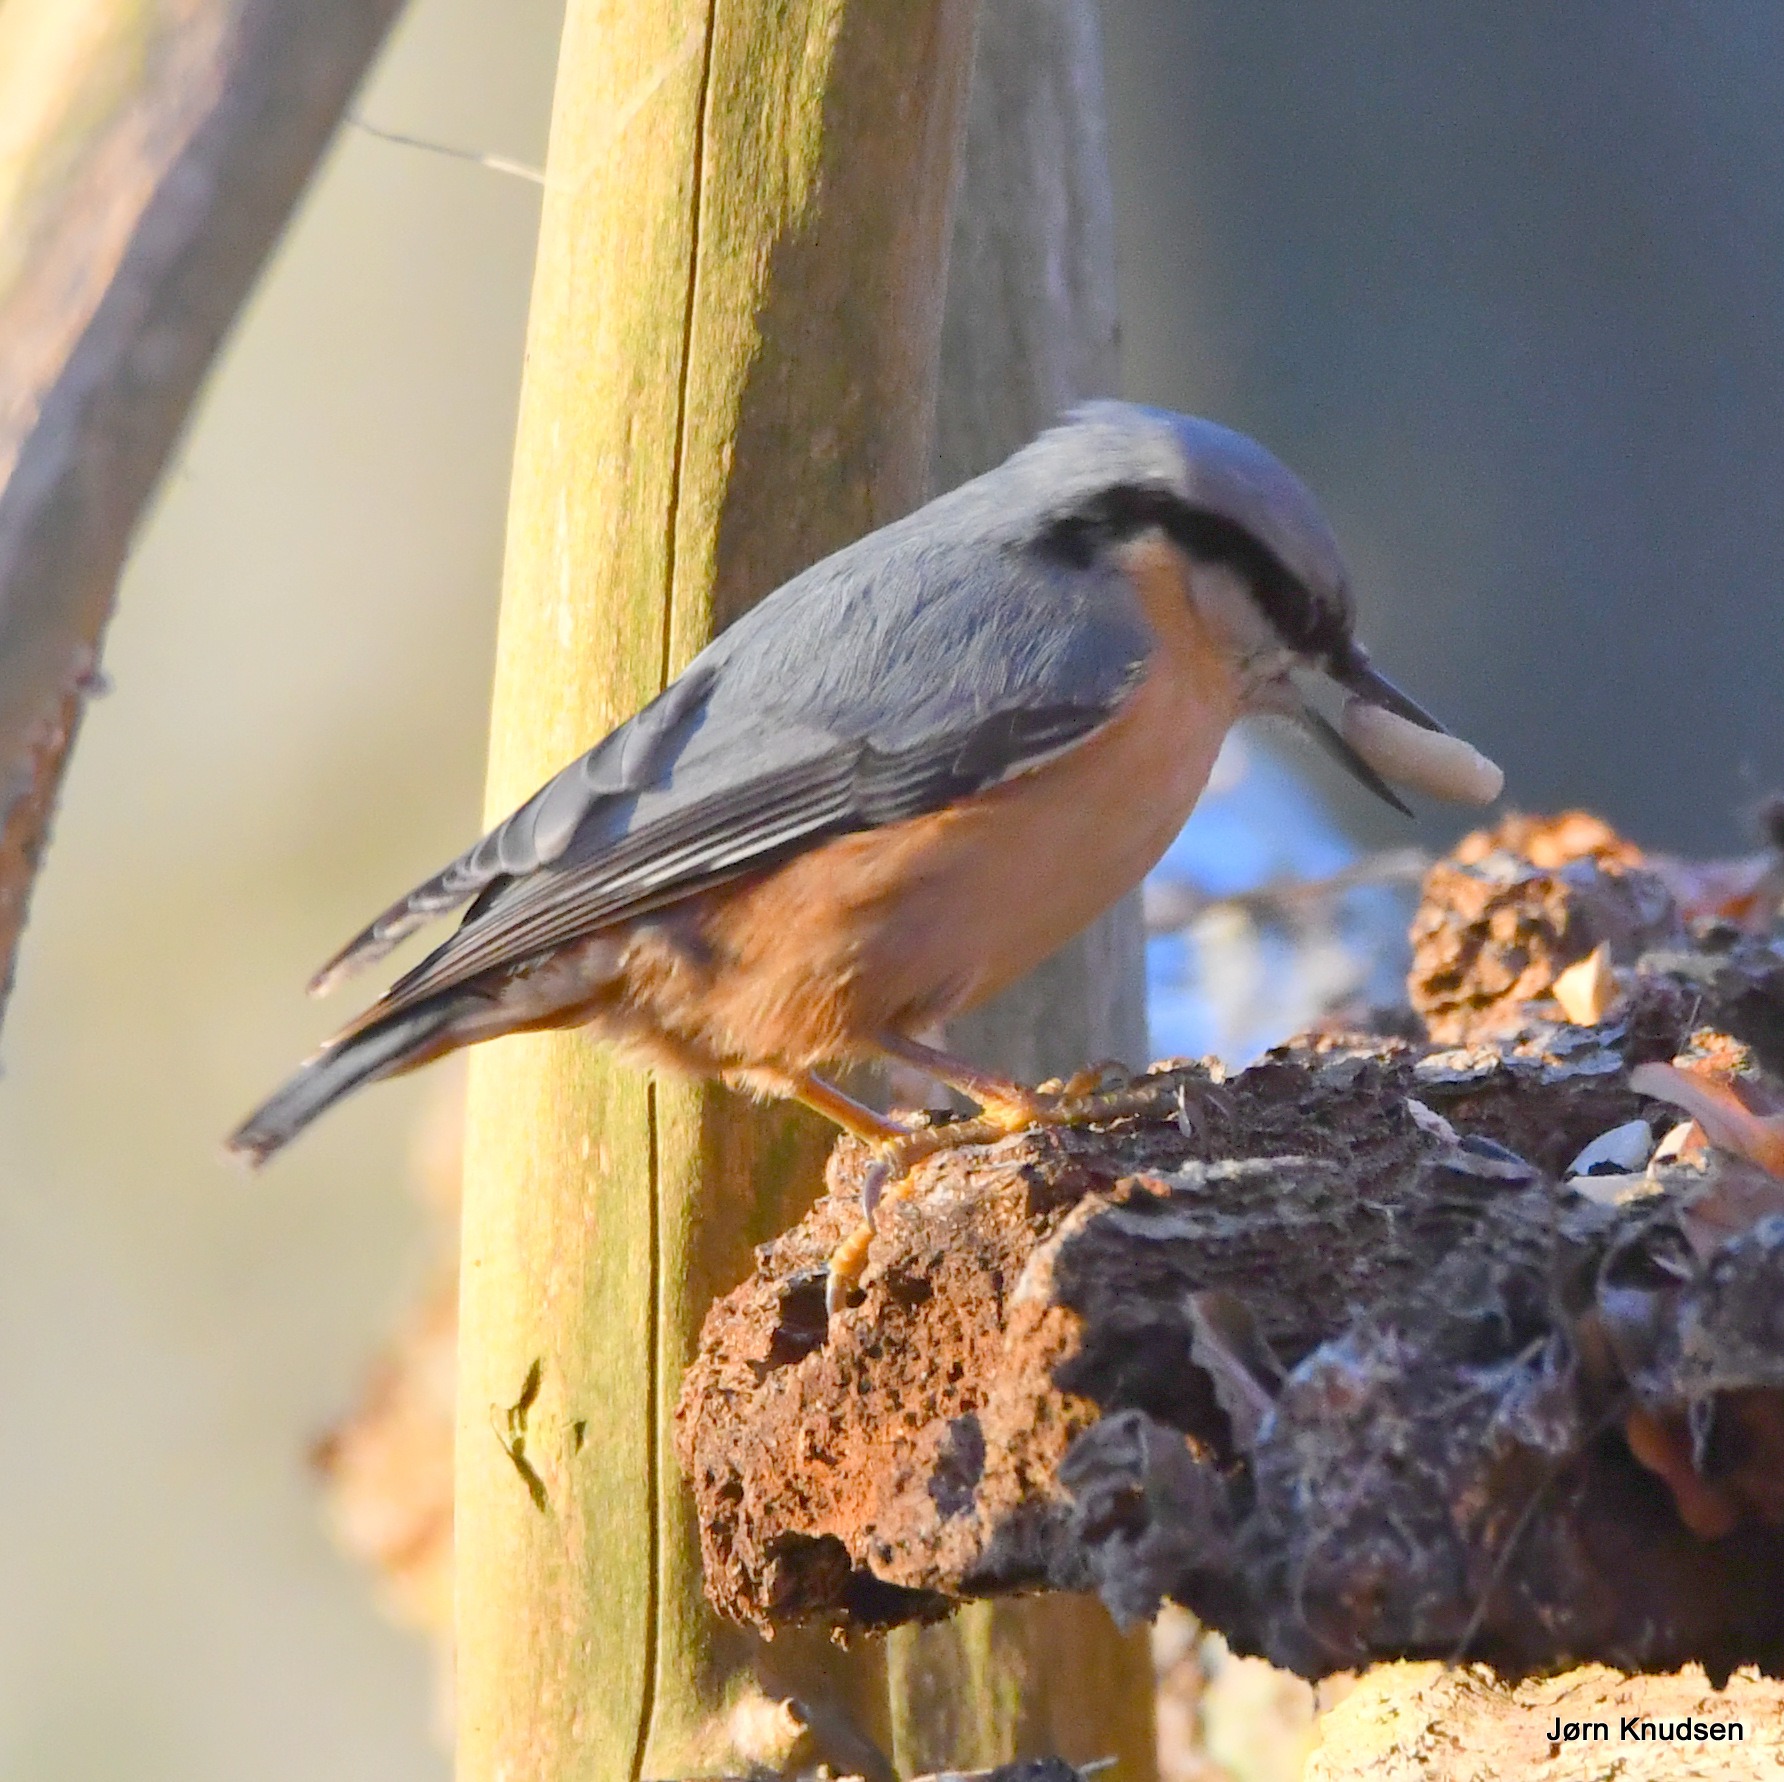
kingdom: Animalia
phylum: Chordata
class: Aves
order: Passeriformes
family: Sittidae
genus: Sitta
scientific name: Sitta europaea
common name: Spætmejse
